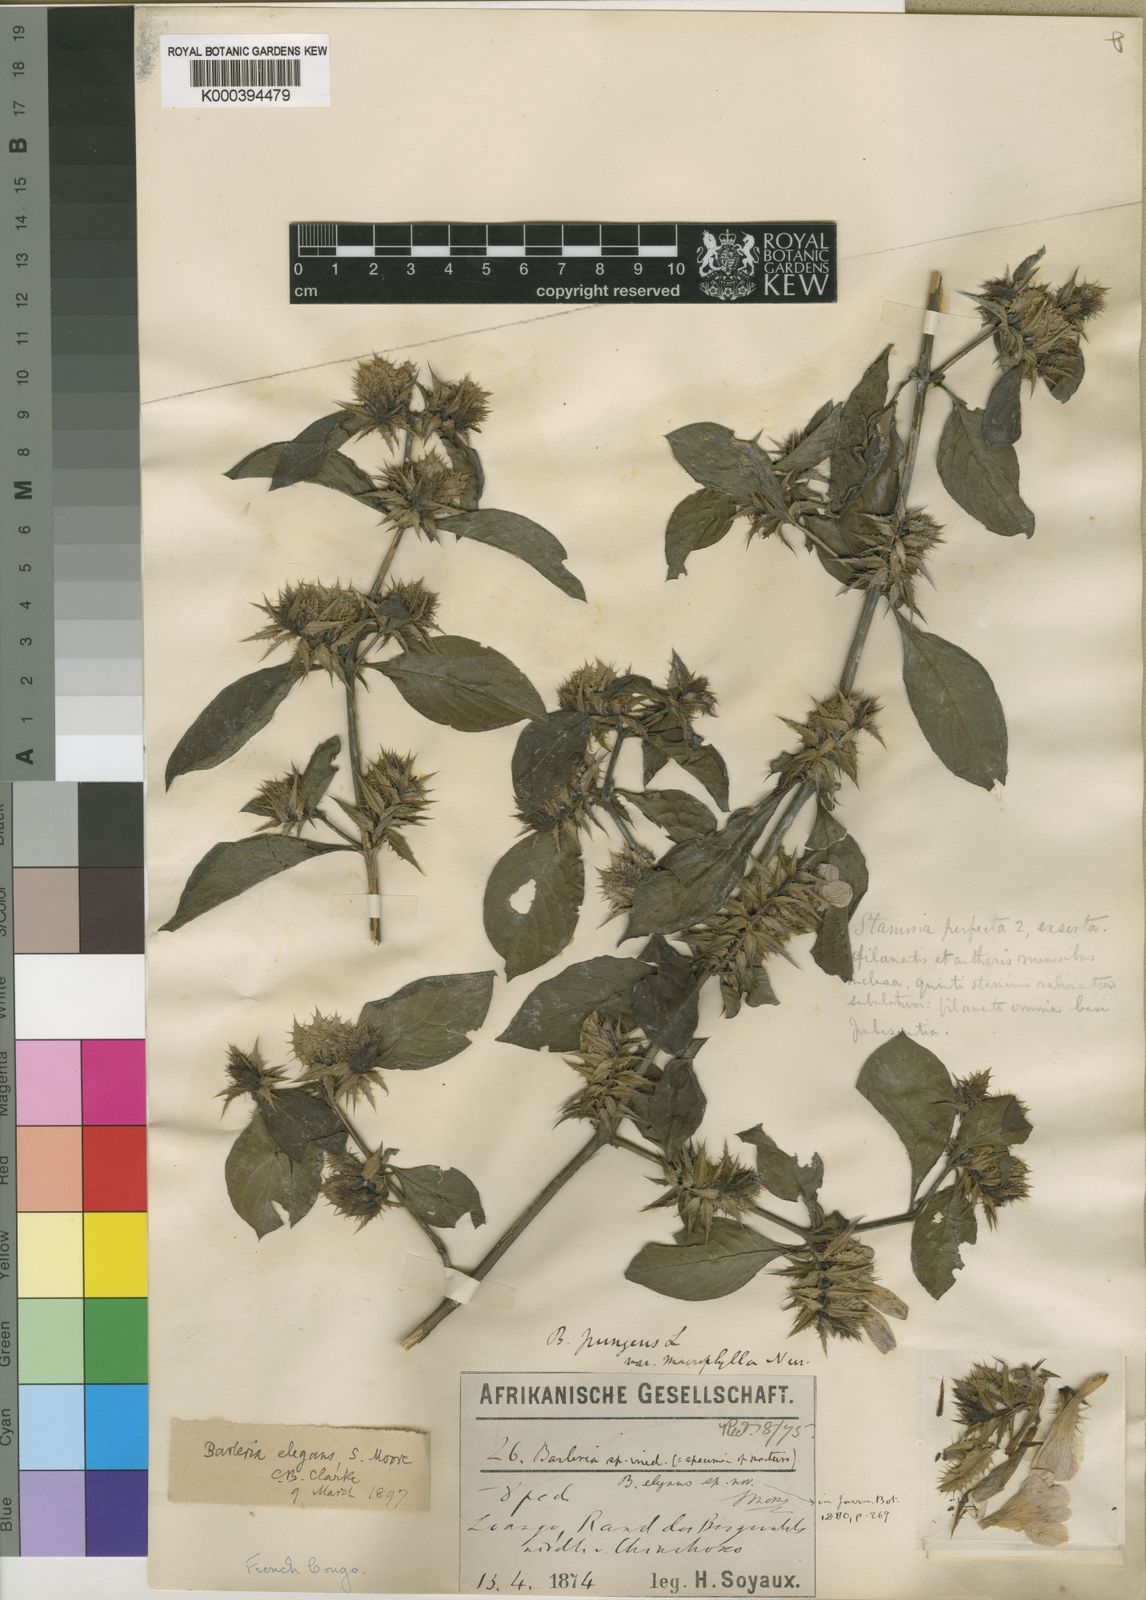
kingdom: Plantae
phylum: Tracheophyta
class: Magnoliopsida
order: Lamiales
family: Acanthaceae
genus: Barleria
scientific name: Barleria elegans
